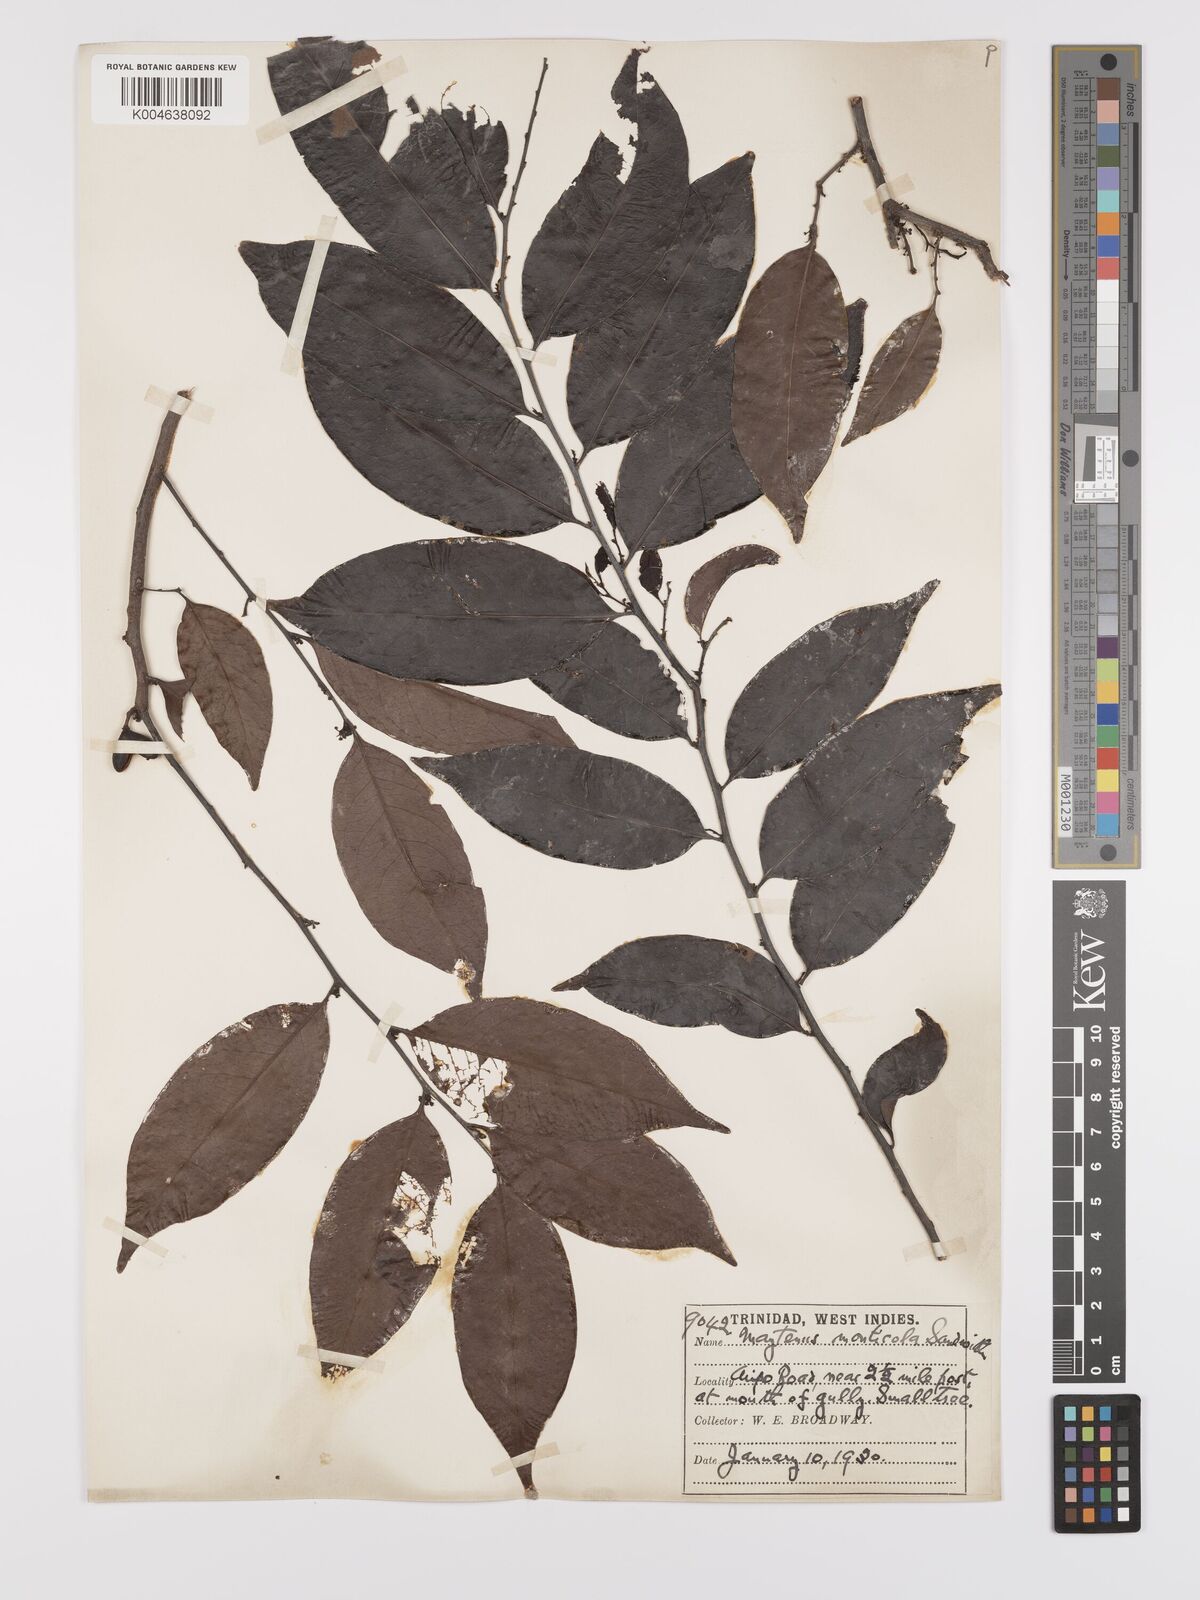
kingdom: Plantae
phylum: Tracheophyta
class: Magnoliopsida
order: Celastrales
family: Celastraceae
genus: Monteverdia
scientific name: Monteverdia monticola
